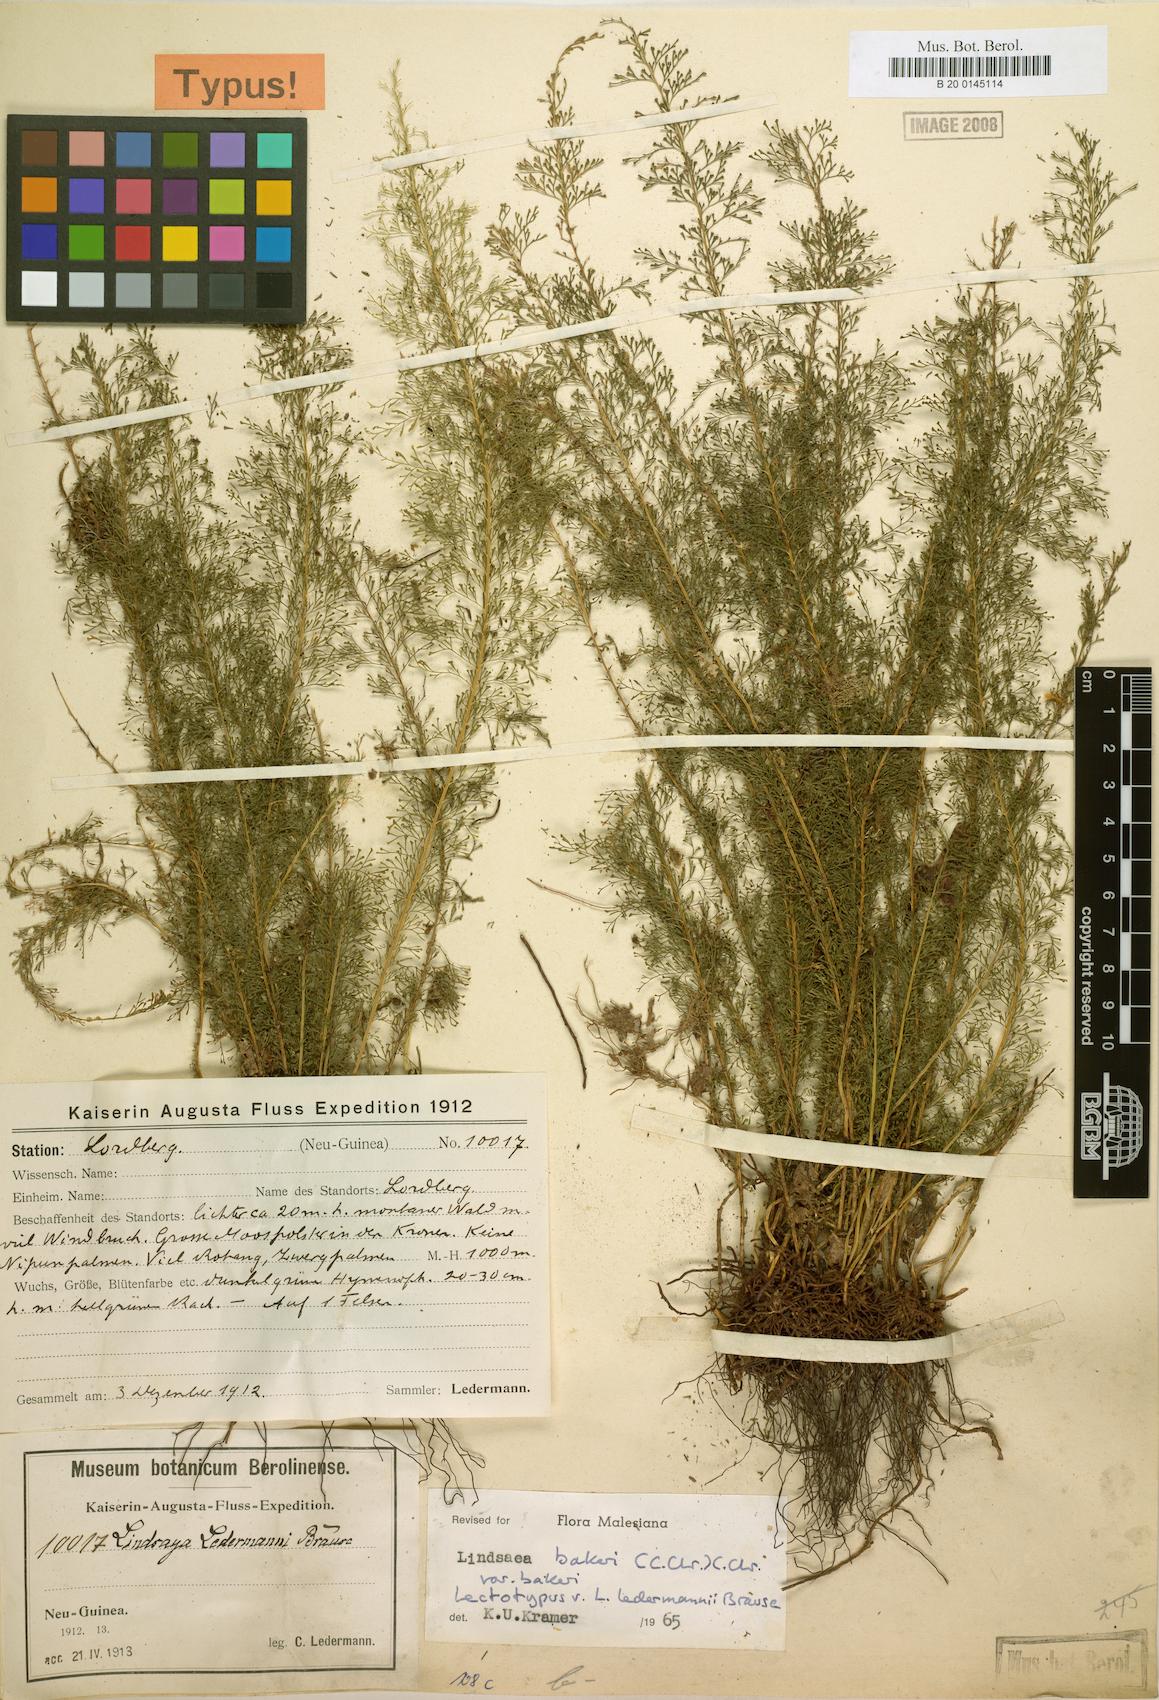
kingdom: Plantae
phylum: Tracheophyta
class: Polypodiopsida
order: Polypodiales
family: Lindsaeaceae
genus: Lindsaea
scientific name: Lindsaea bakeri
